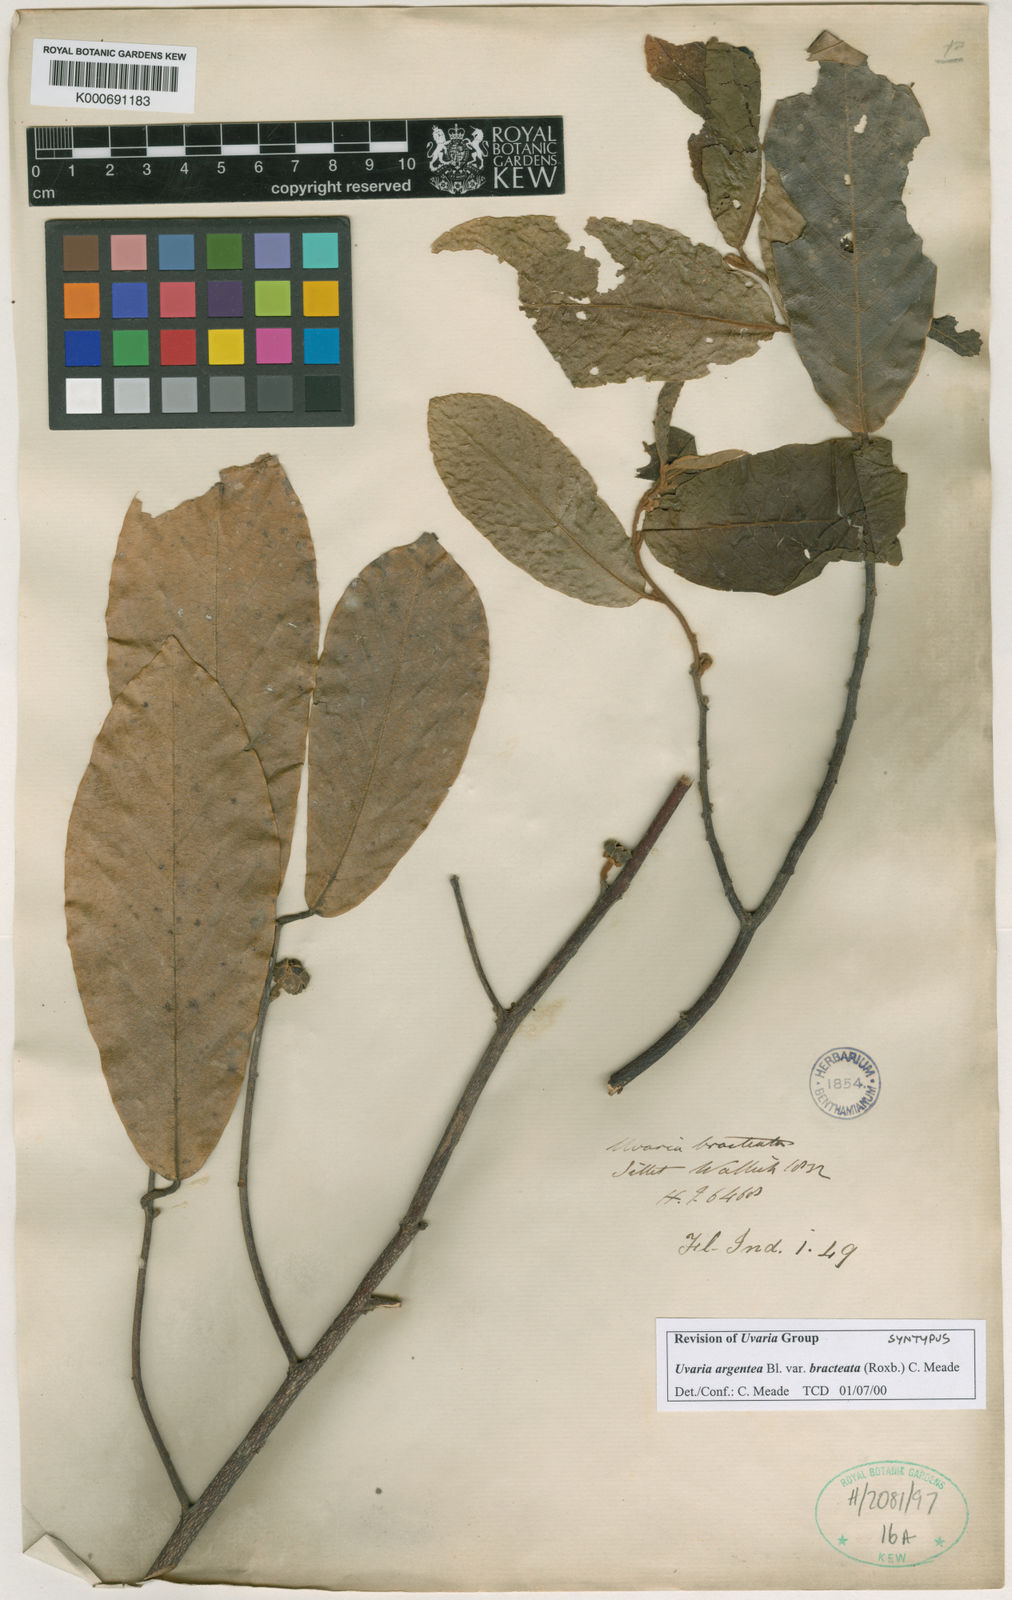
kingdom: Plantae
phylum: Tracheophyta
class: Magnoliopsida
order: Magnoliales
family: Annonaceae
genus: Uvaria
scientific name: Uvaria argentea
